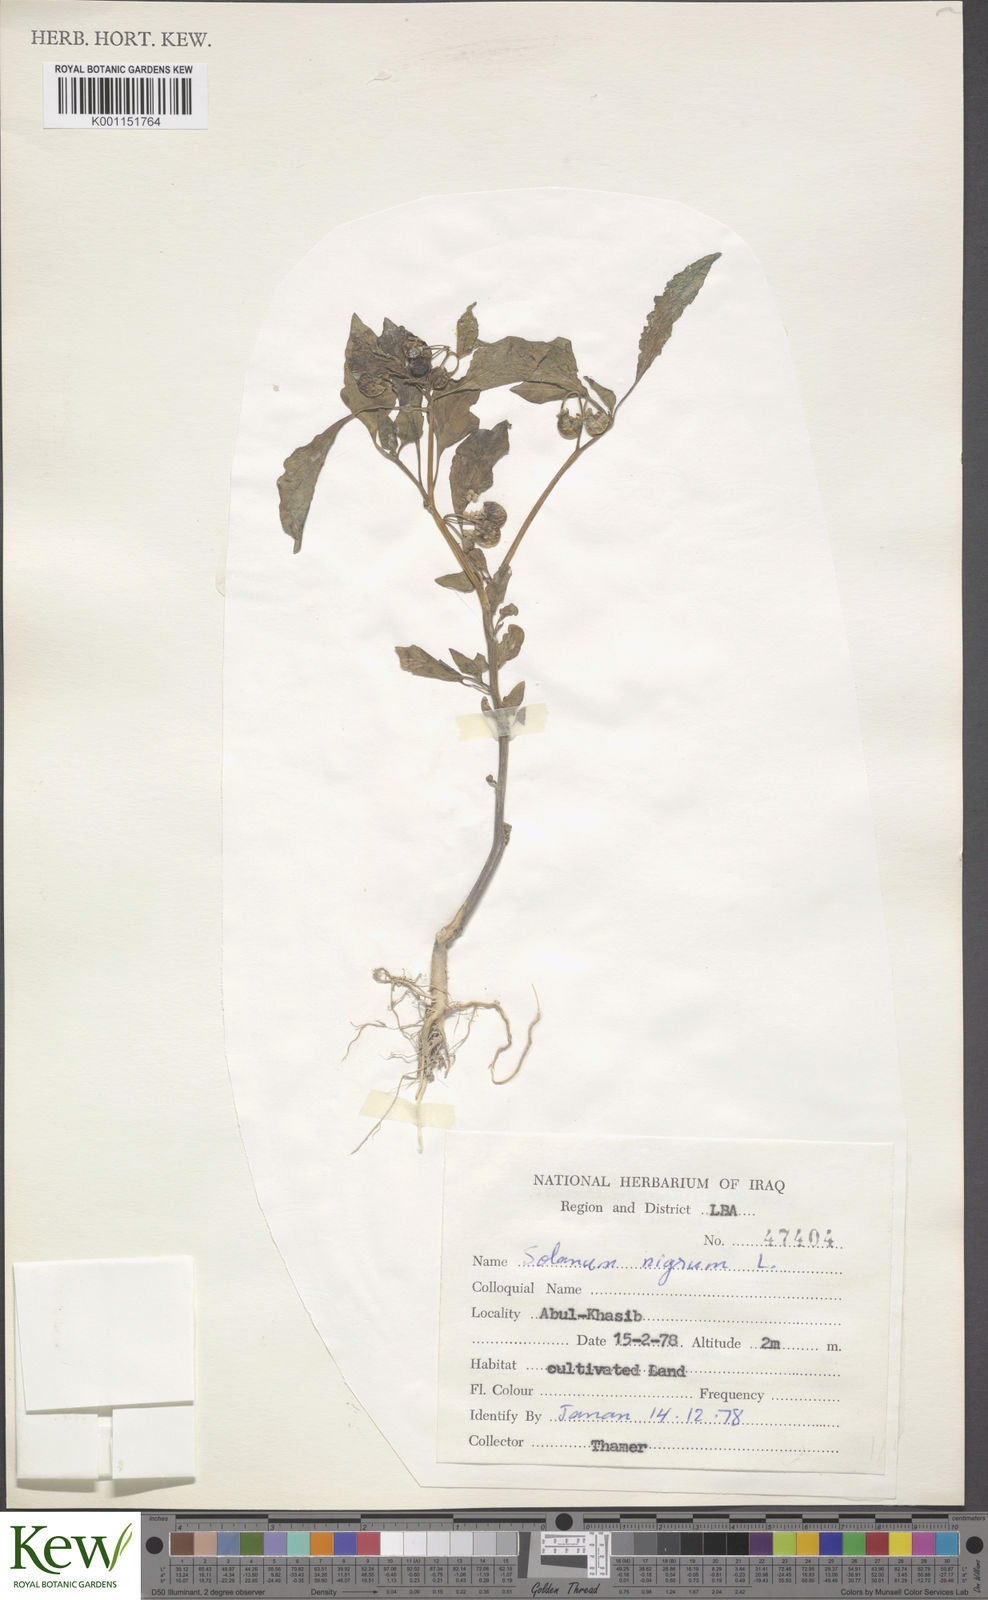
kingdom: Plantae
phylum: Tracheophyta
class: Magnoliopsida
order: Solanales
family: Solanaceae
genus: Solanum
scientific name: Solanum nigrum
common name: Black nightshade
